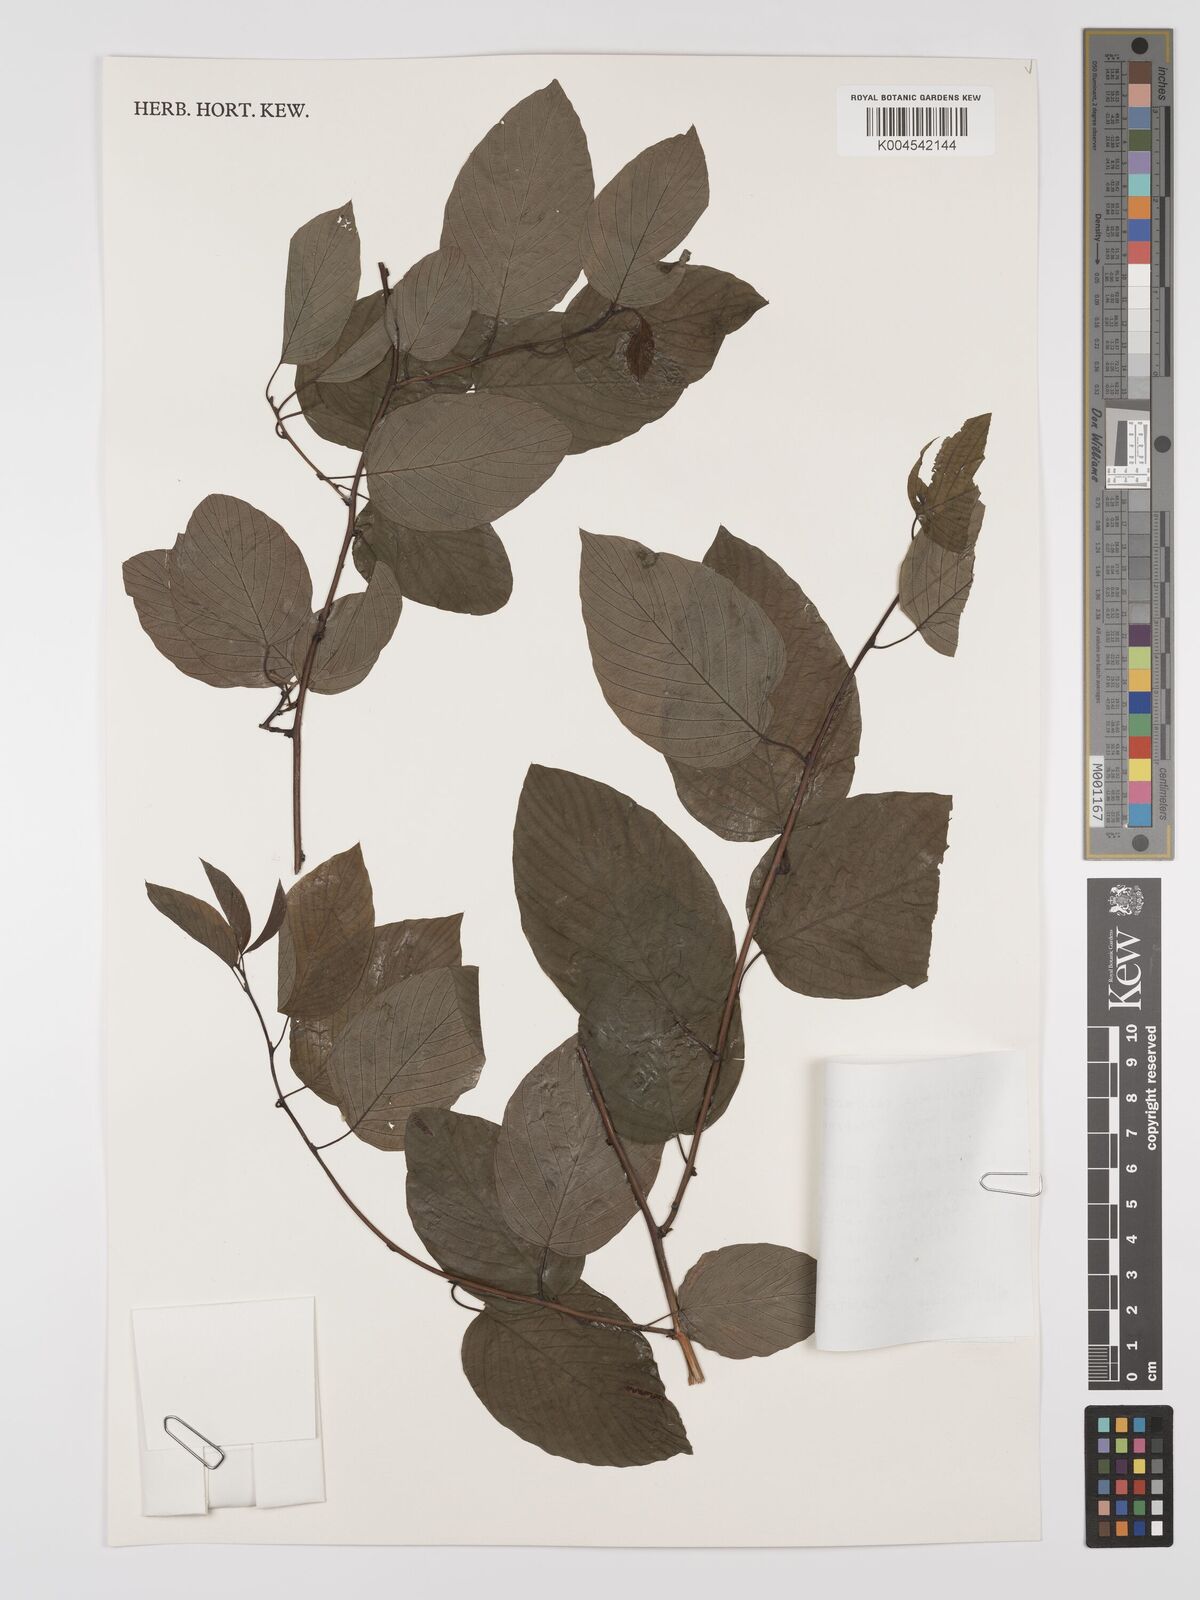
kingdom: Plantae
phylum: Tracheophyta
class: Magnoliopsida
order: Rosales
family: Rhamnaceae
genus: Berchemia
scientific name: Berchemia floribunda
